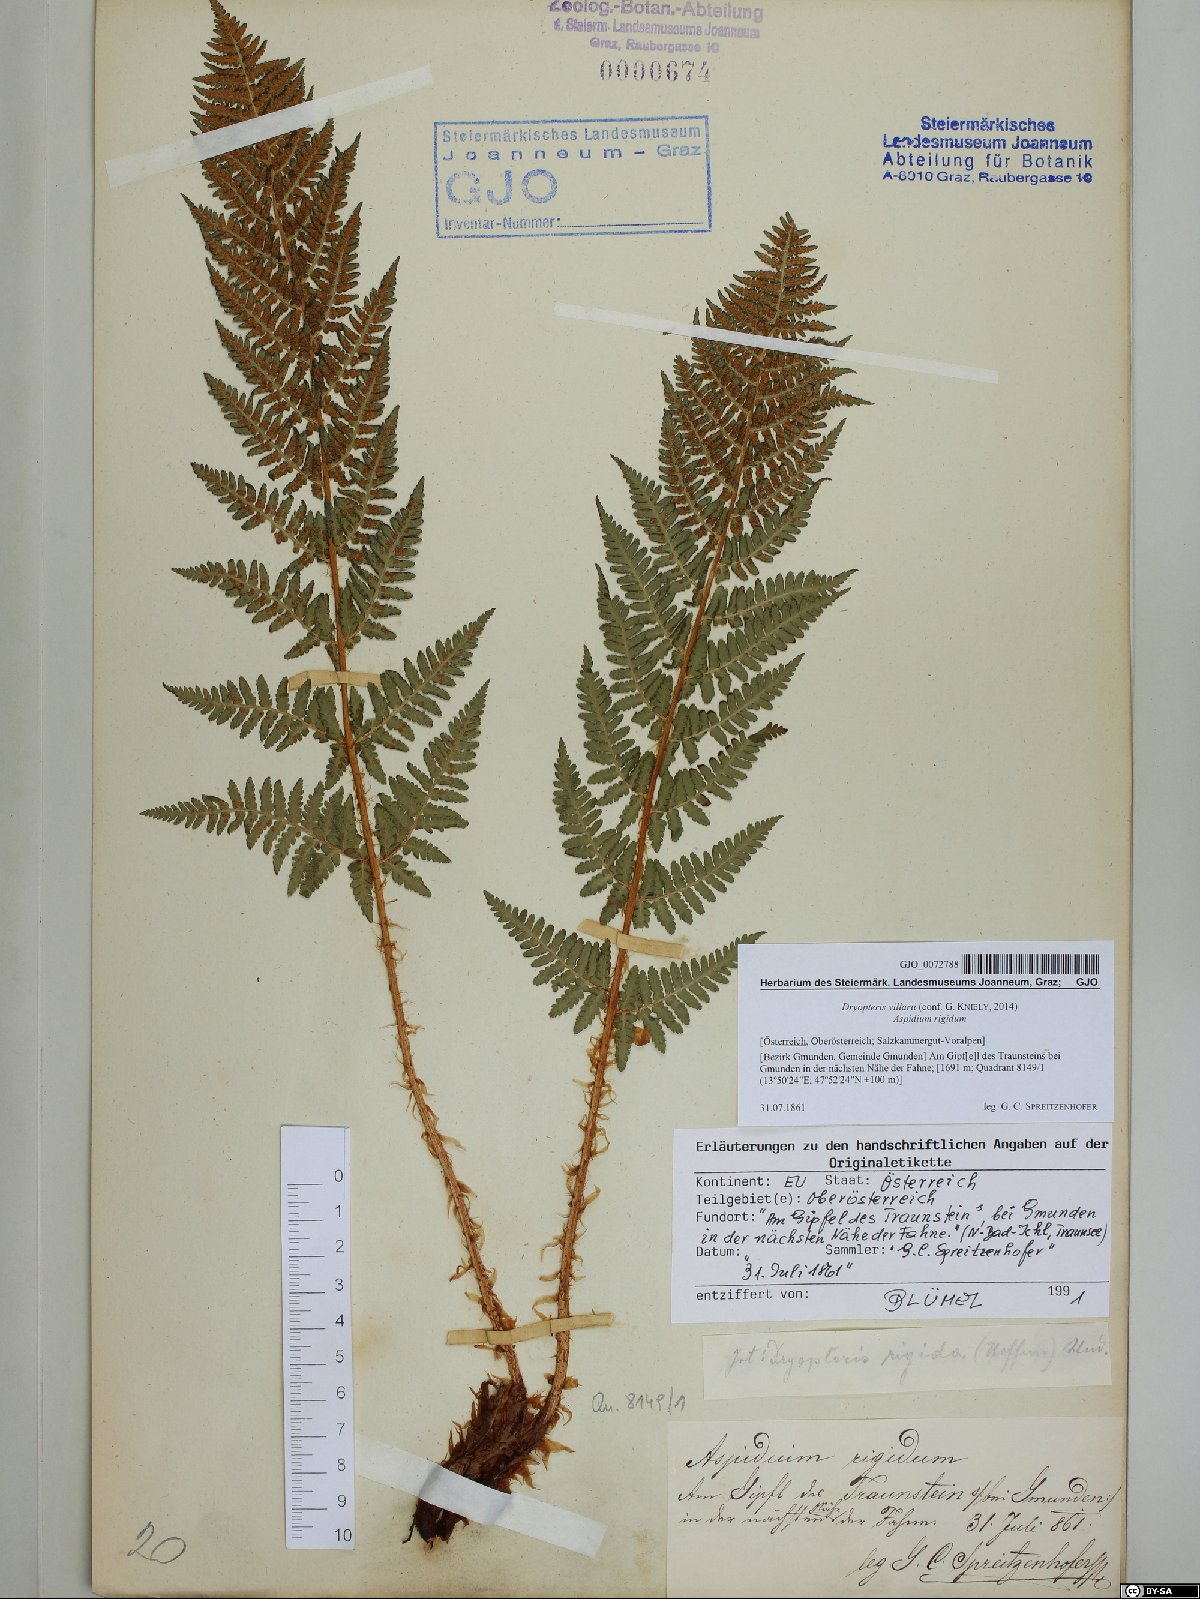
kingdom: Plantae
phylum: Tracheophyta
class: Polypodiopsida
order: Polypodiales
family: Dryopteridaceae
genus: Dryopteris
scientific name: Dryopteris villarii
